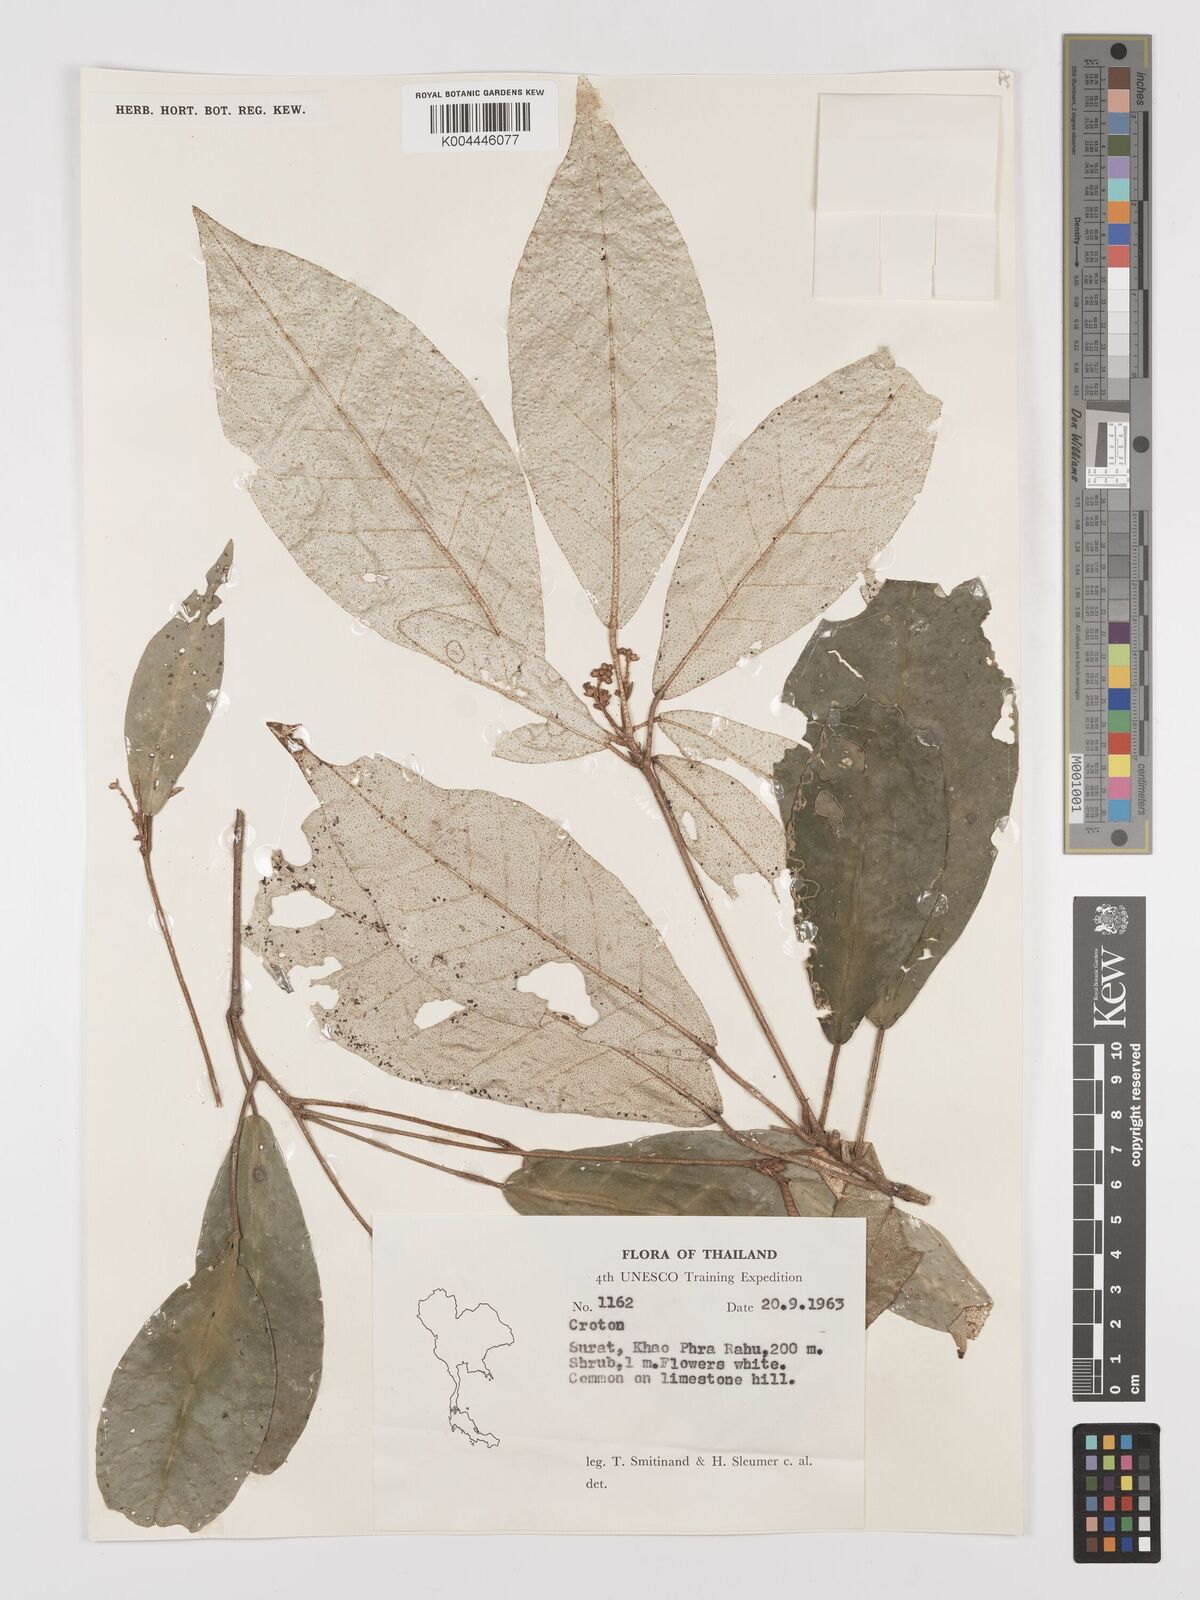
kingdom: Plantae
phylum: Tracheophyta
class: Magnoliopsida
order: Malpighiales
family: Euphorbiaceae
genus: Croton
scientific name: Croton cascarilloides
